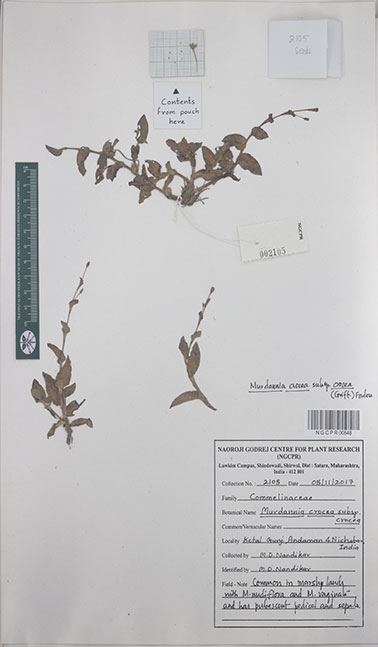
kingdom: Plantae
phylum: Tracheophyta
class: Liliopsida
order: Commelinales
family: Commelinaceae
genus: Murdannia
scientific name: Murdannia crocea
